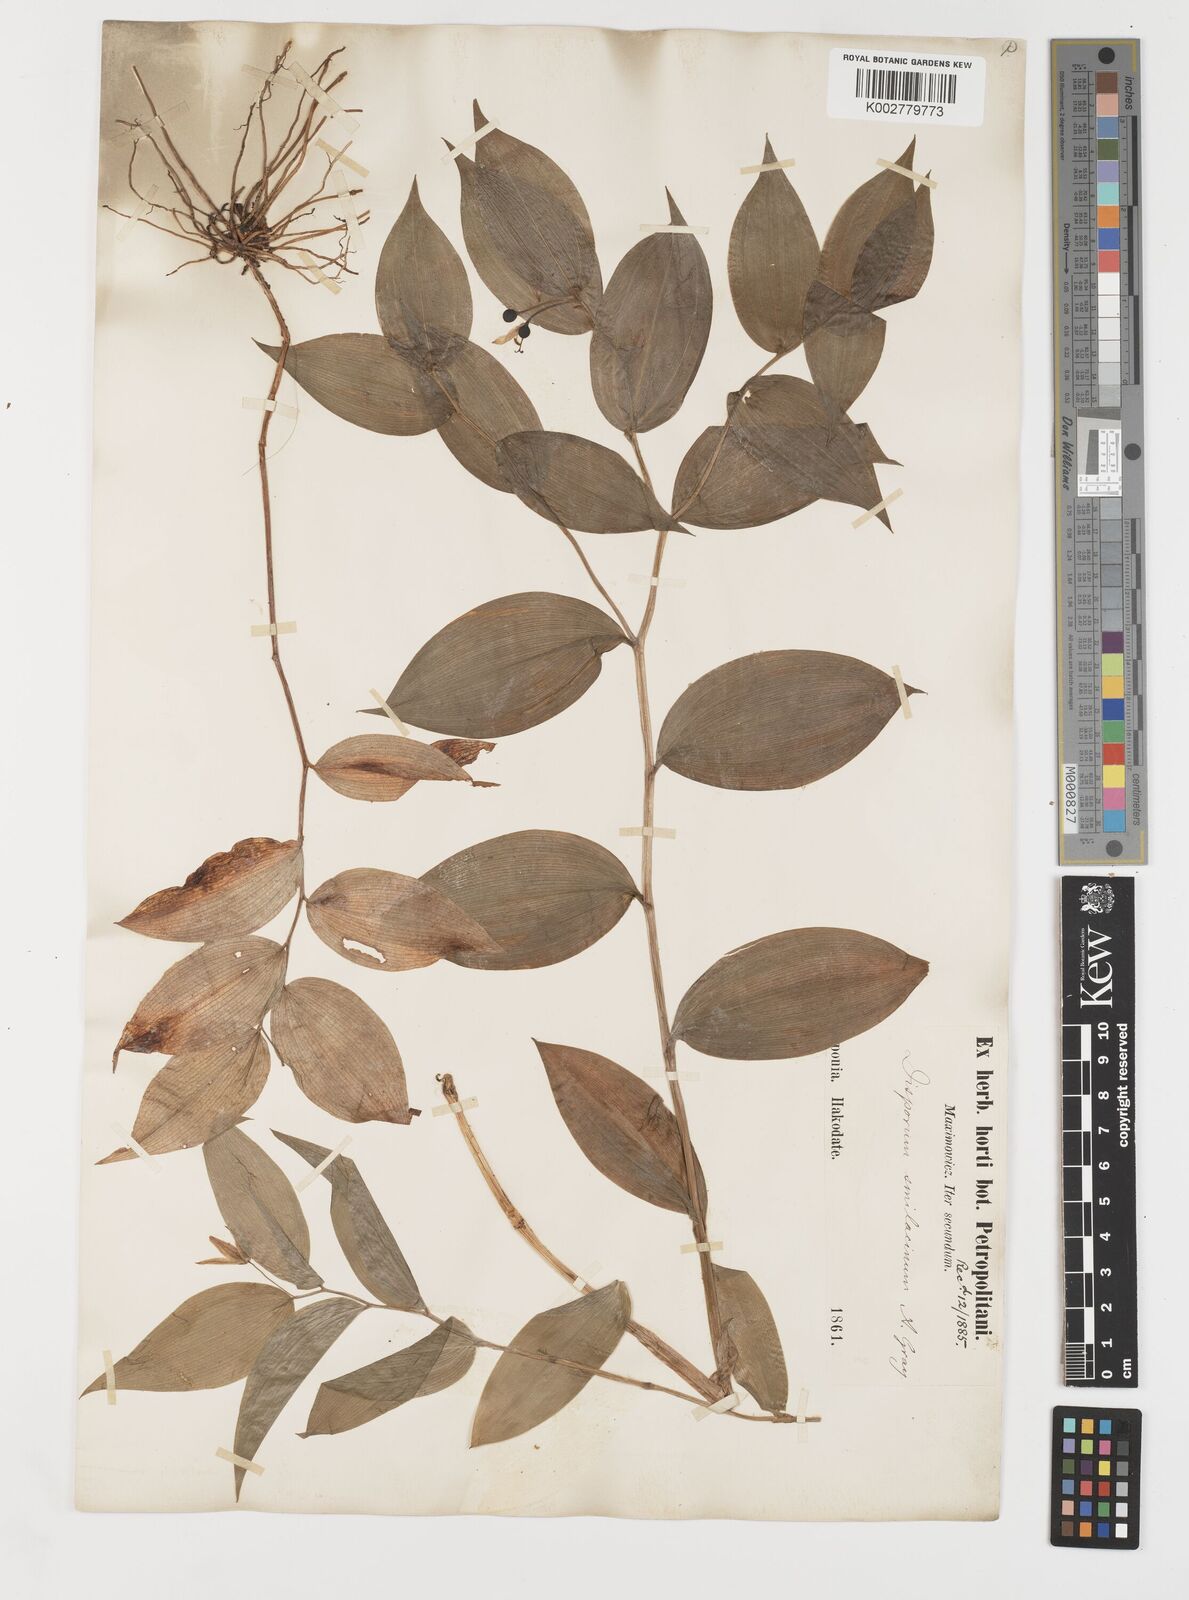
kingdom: Plantae
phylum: Tracheophyta
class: Liliopsida
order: Liliales
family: Colchicaceae
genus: Disporum
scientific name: Disporum smilacinum
